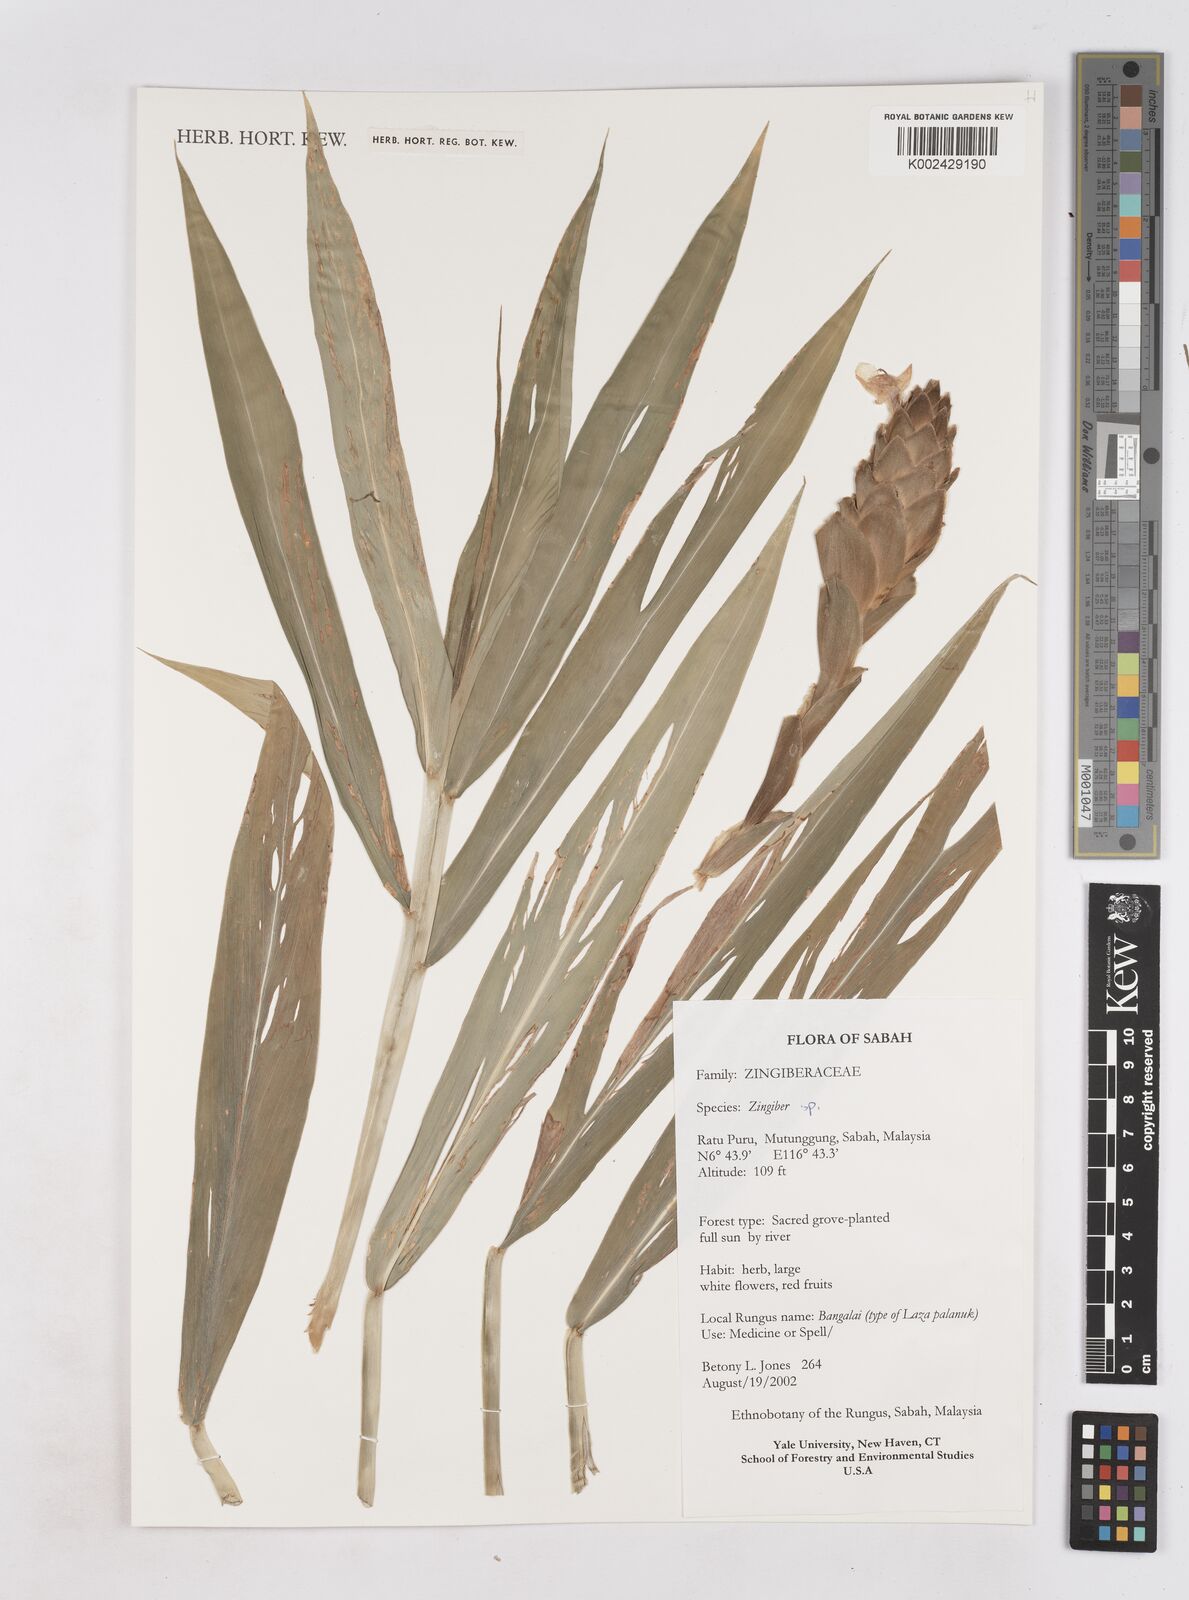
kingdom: Plantae
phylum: Tracheophyta
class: Liliopsida
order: Zingiberales
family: Zingiberaceae
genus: Zingiber
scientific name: Zingiber
